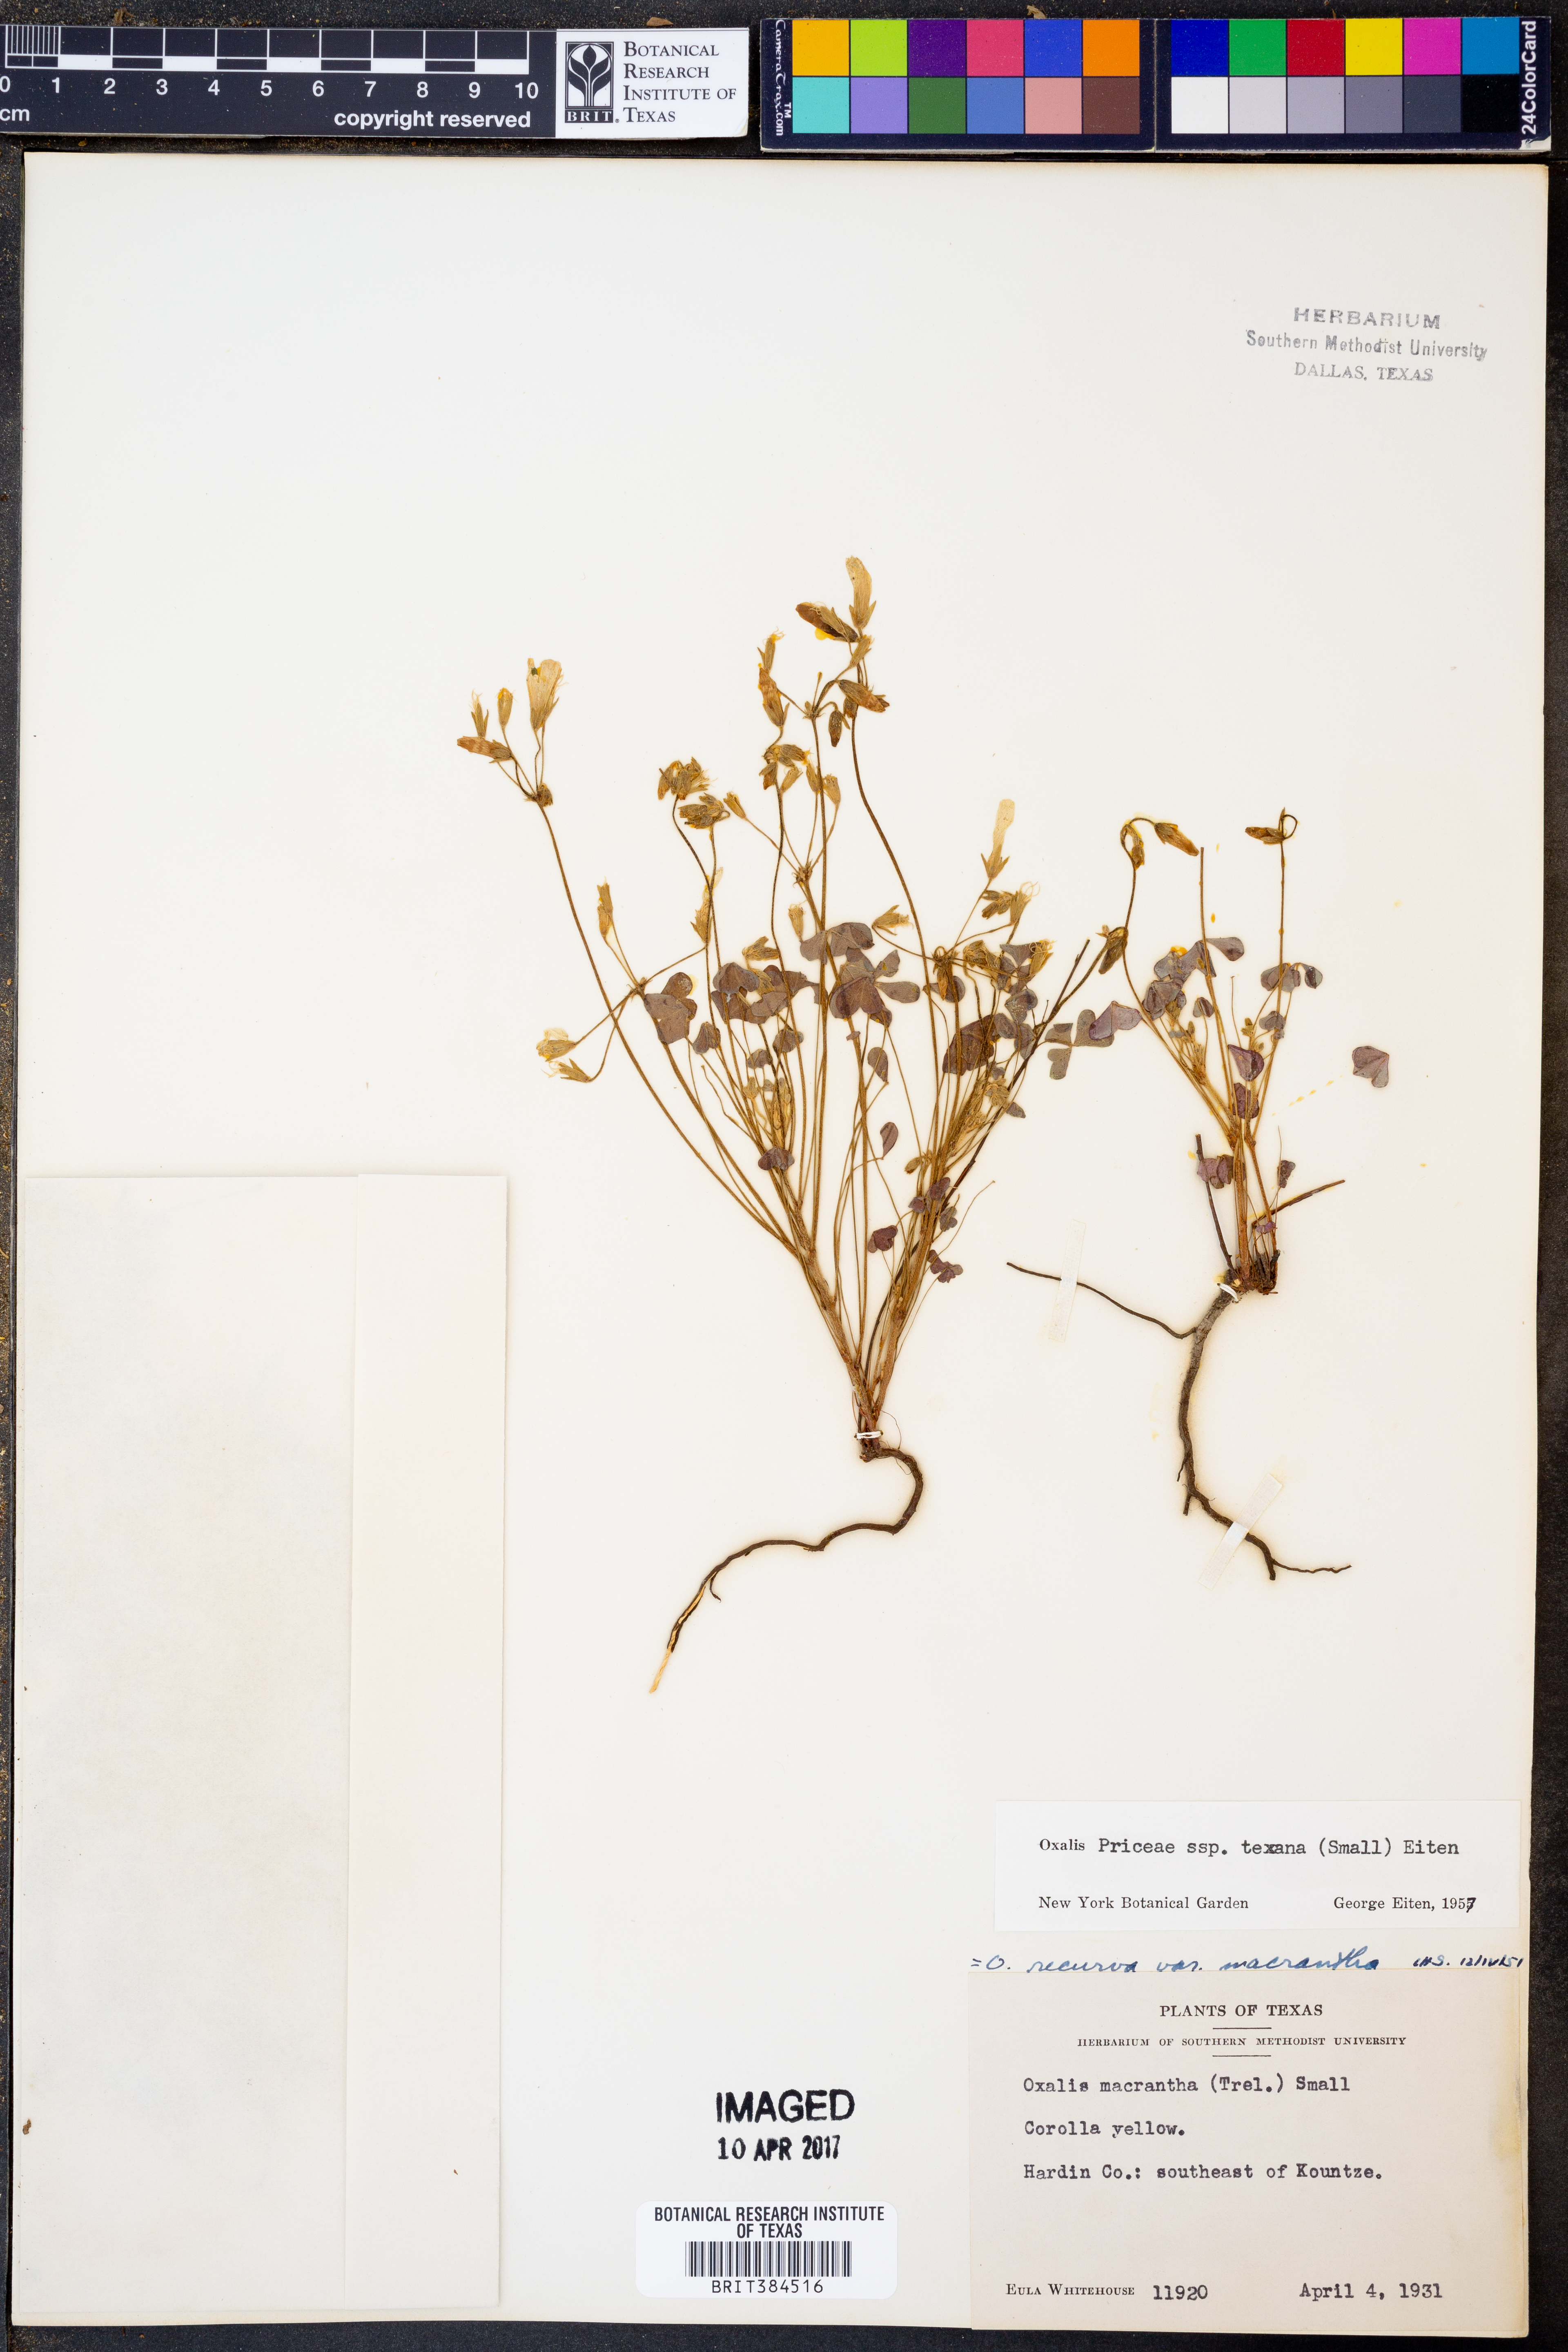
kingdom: Plantae
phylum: Tracheophyta
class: Magnoliopsida
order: Oxalidales
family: Oxalidaceae
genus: Oxalis
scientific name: Oxalis texana
